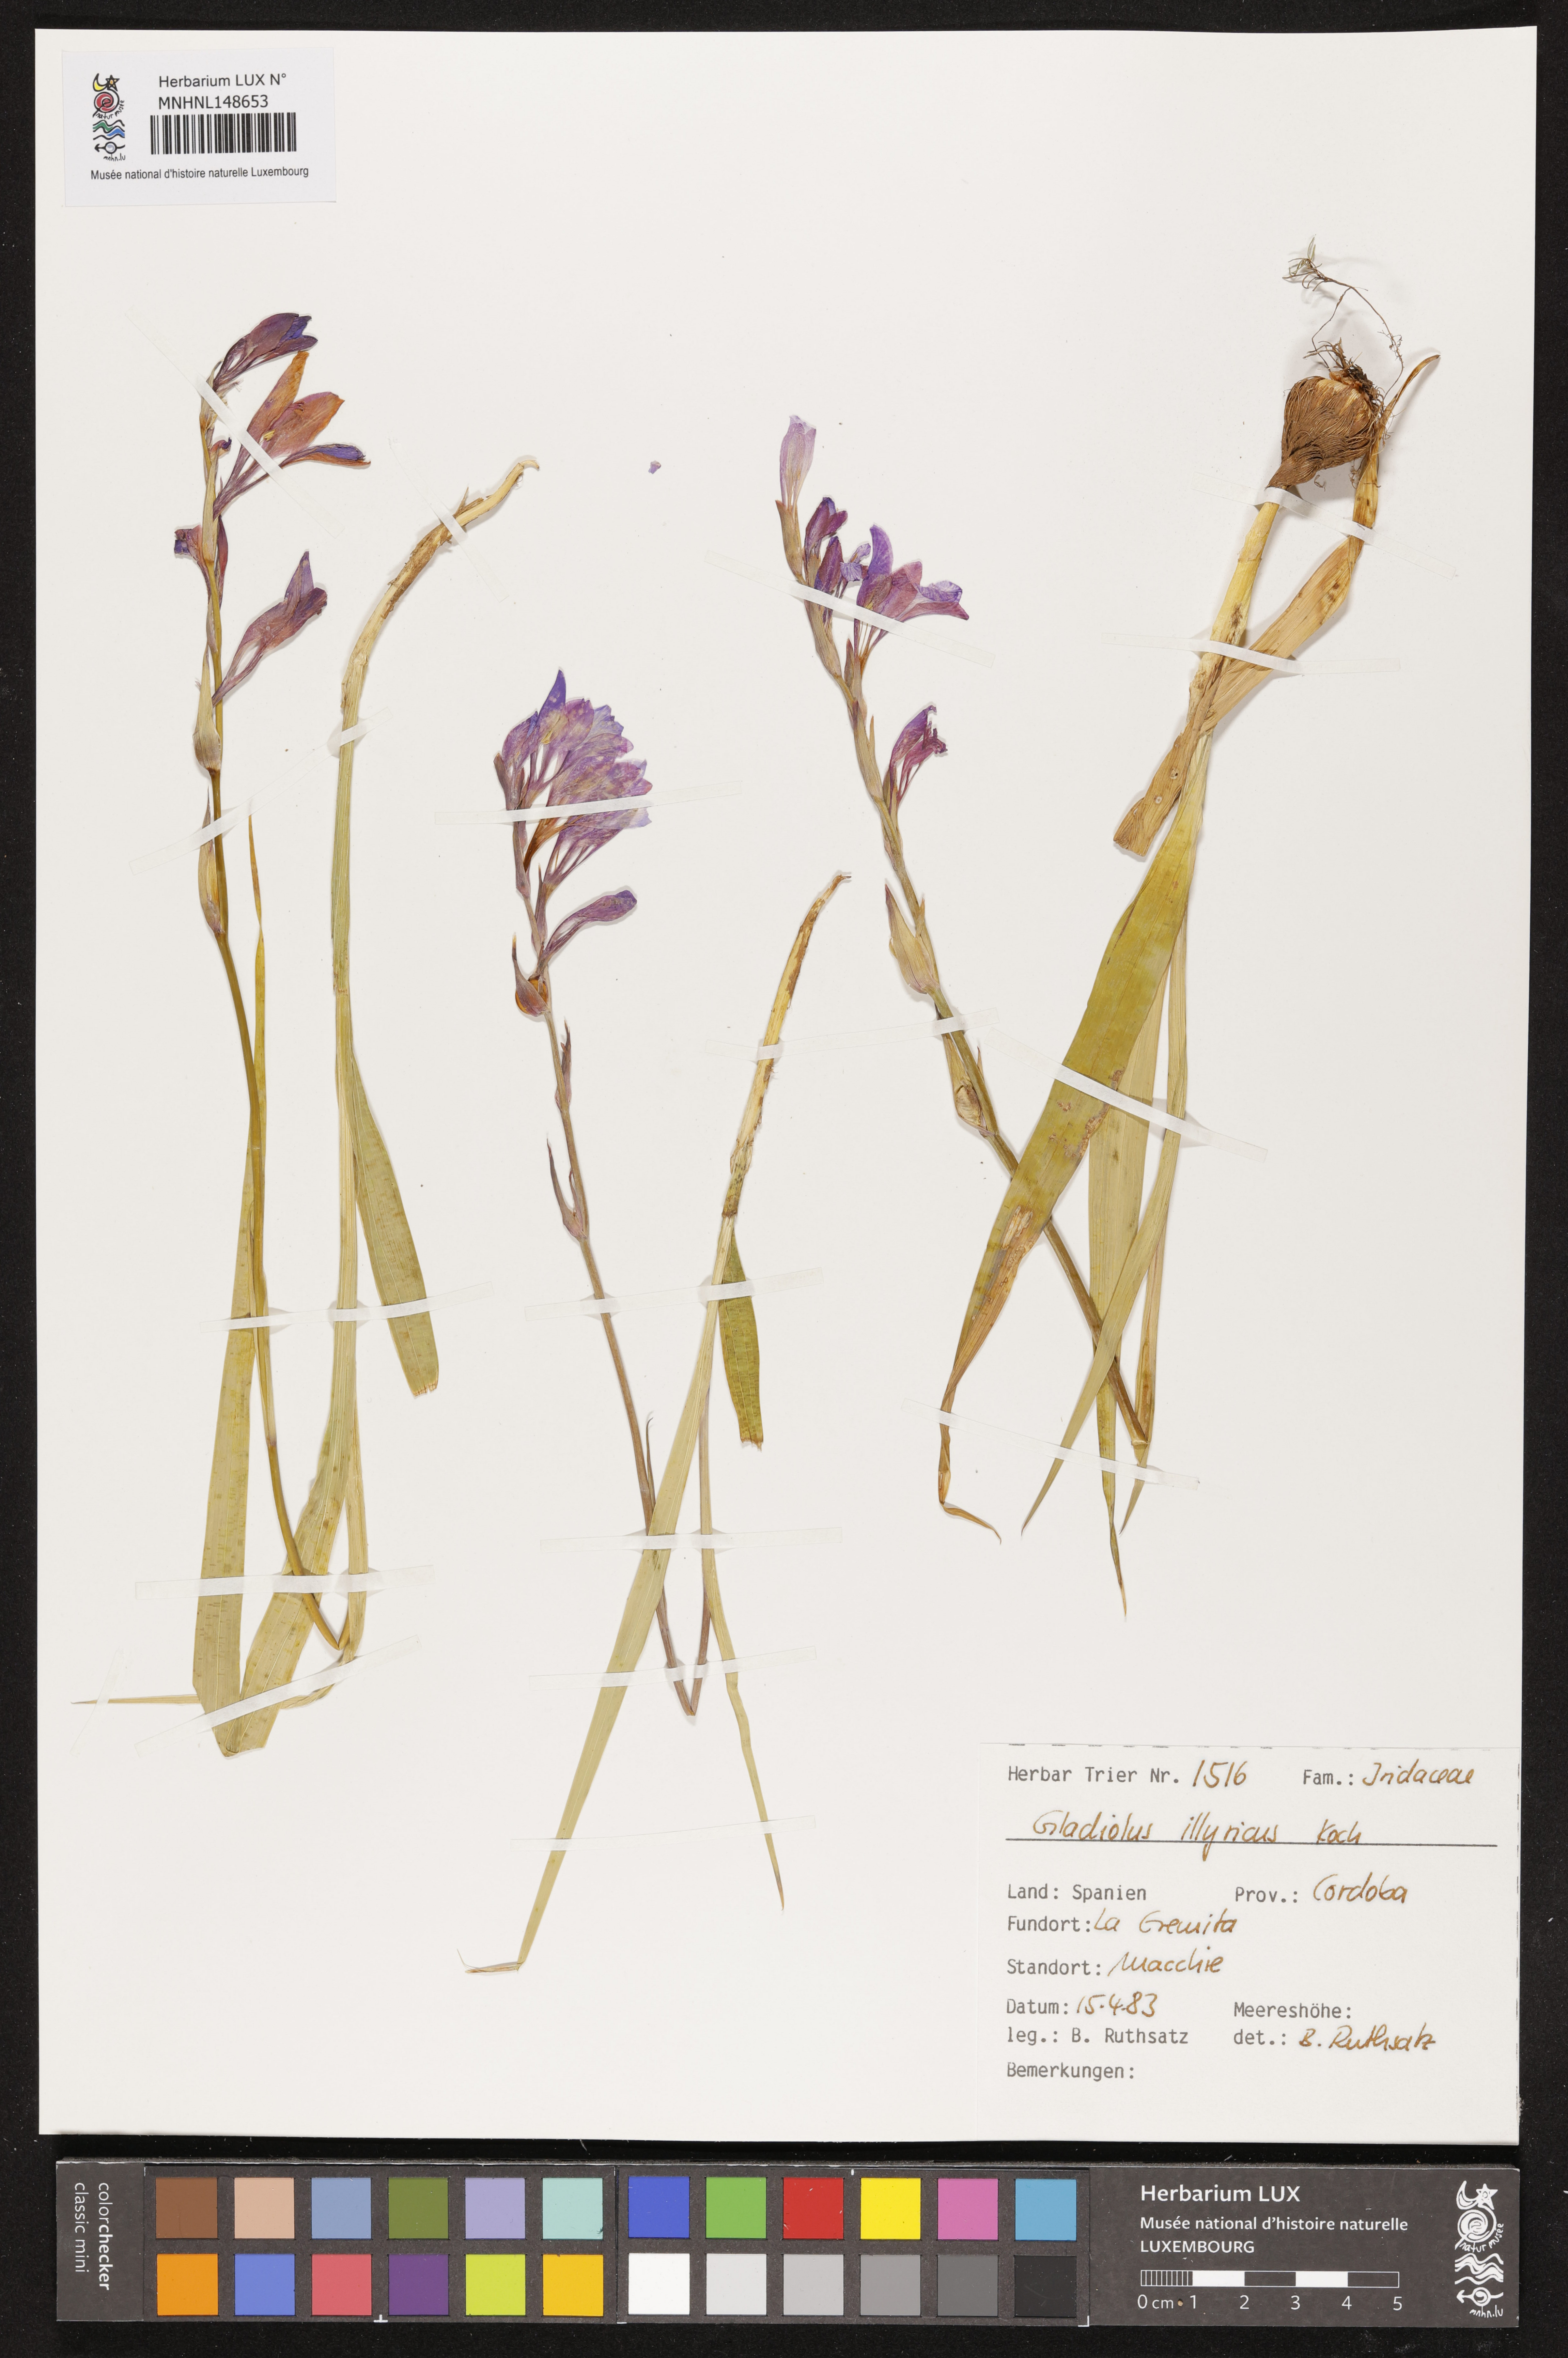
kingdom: Plantae
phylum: Tracheophyta
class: Liliopsida
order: Asparagales
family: Iridaceae
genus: Gladiolus
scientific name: Gladiolus illyricus
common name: Wild gladiolus
